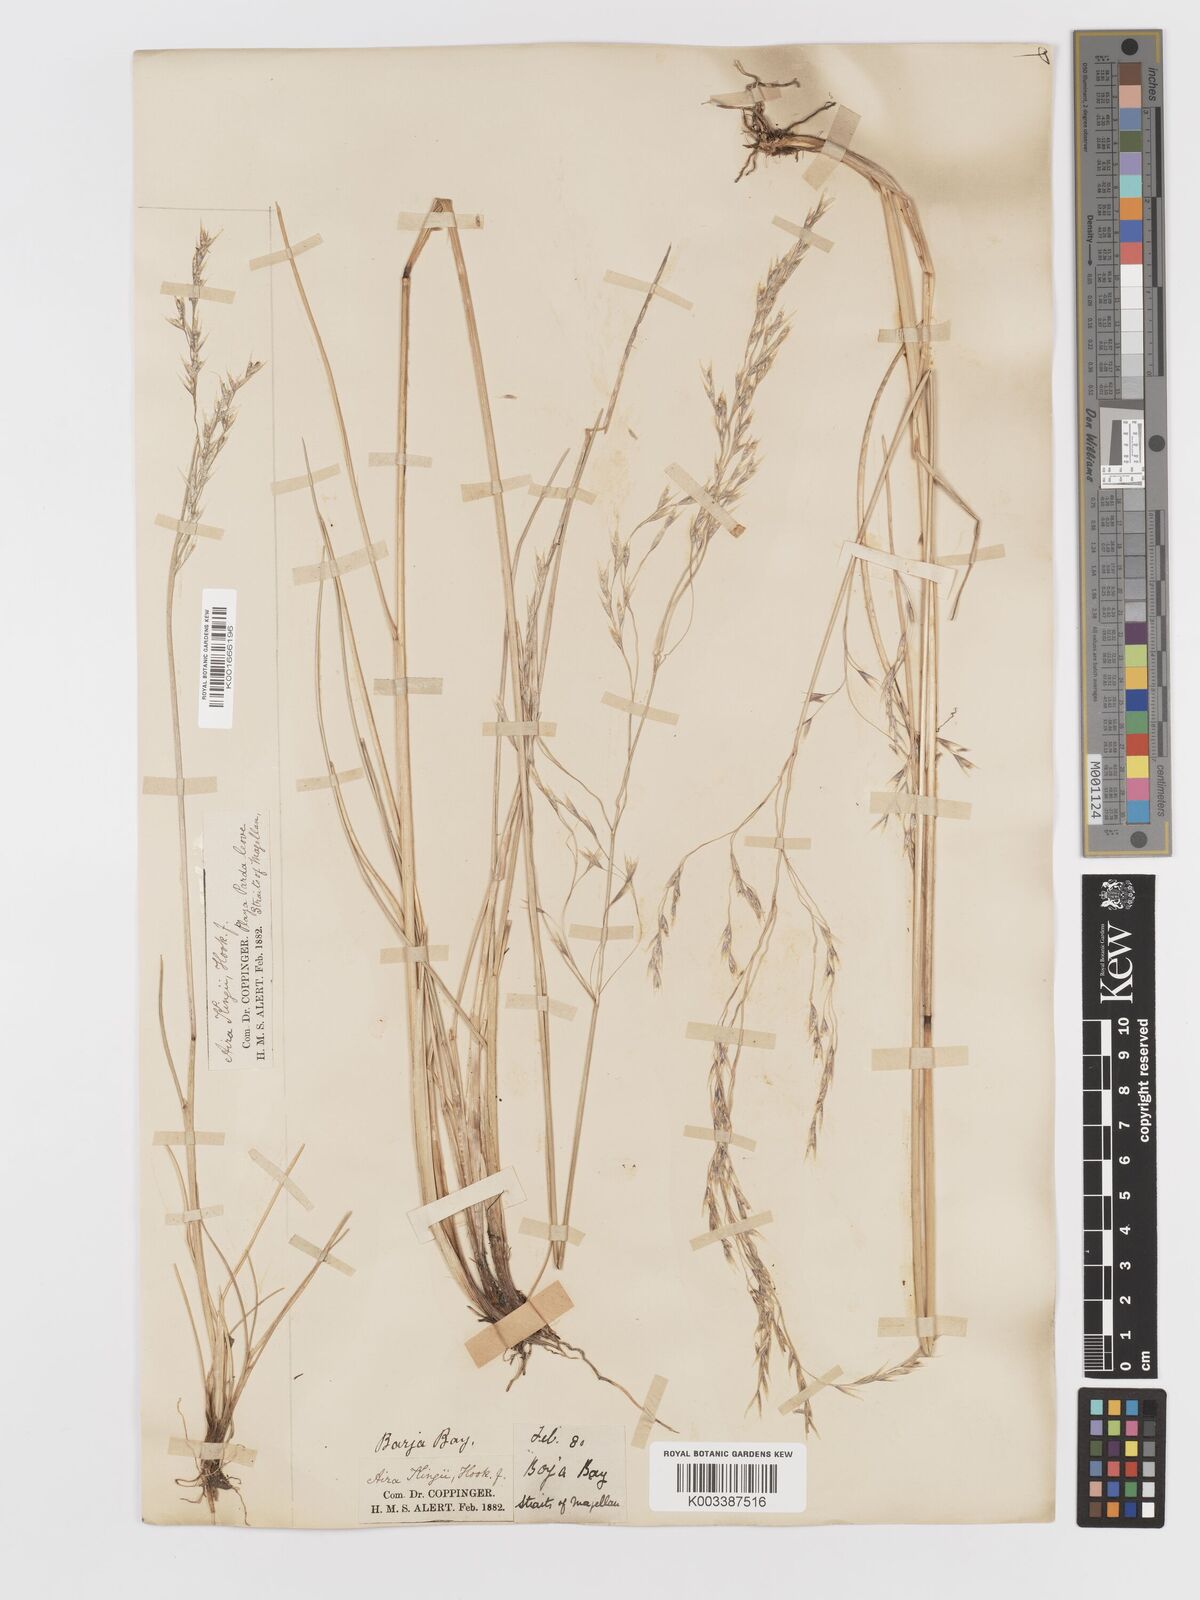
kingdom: Plantae
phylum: Tracheophyta
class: Liliopsida
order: Poales
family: Poaceae
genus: Deschampsia
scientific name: Deschampsia kingii
